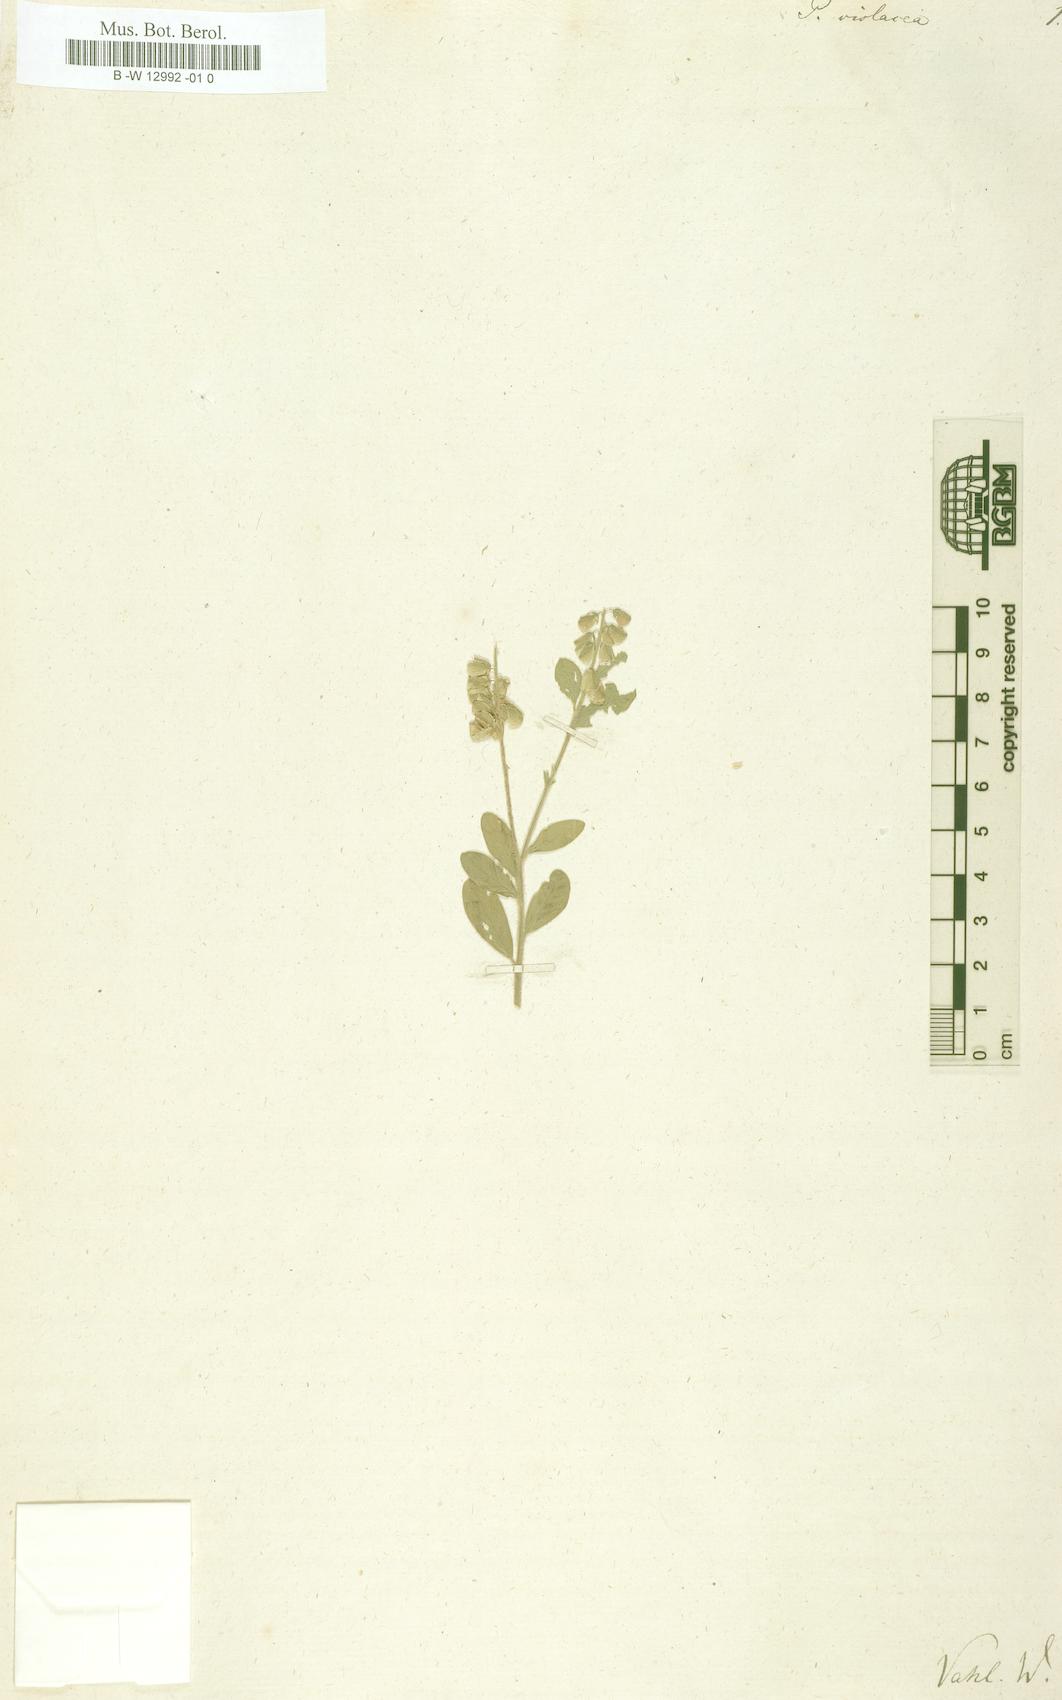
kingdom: Plantae
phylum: Tracheophyta
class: Magnoliopsida
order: Fabales
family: Polygalaceae
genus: Asemeia
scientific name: Asemeia
